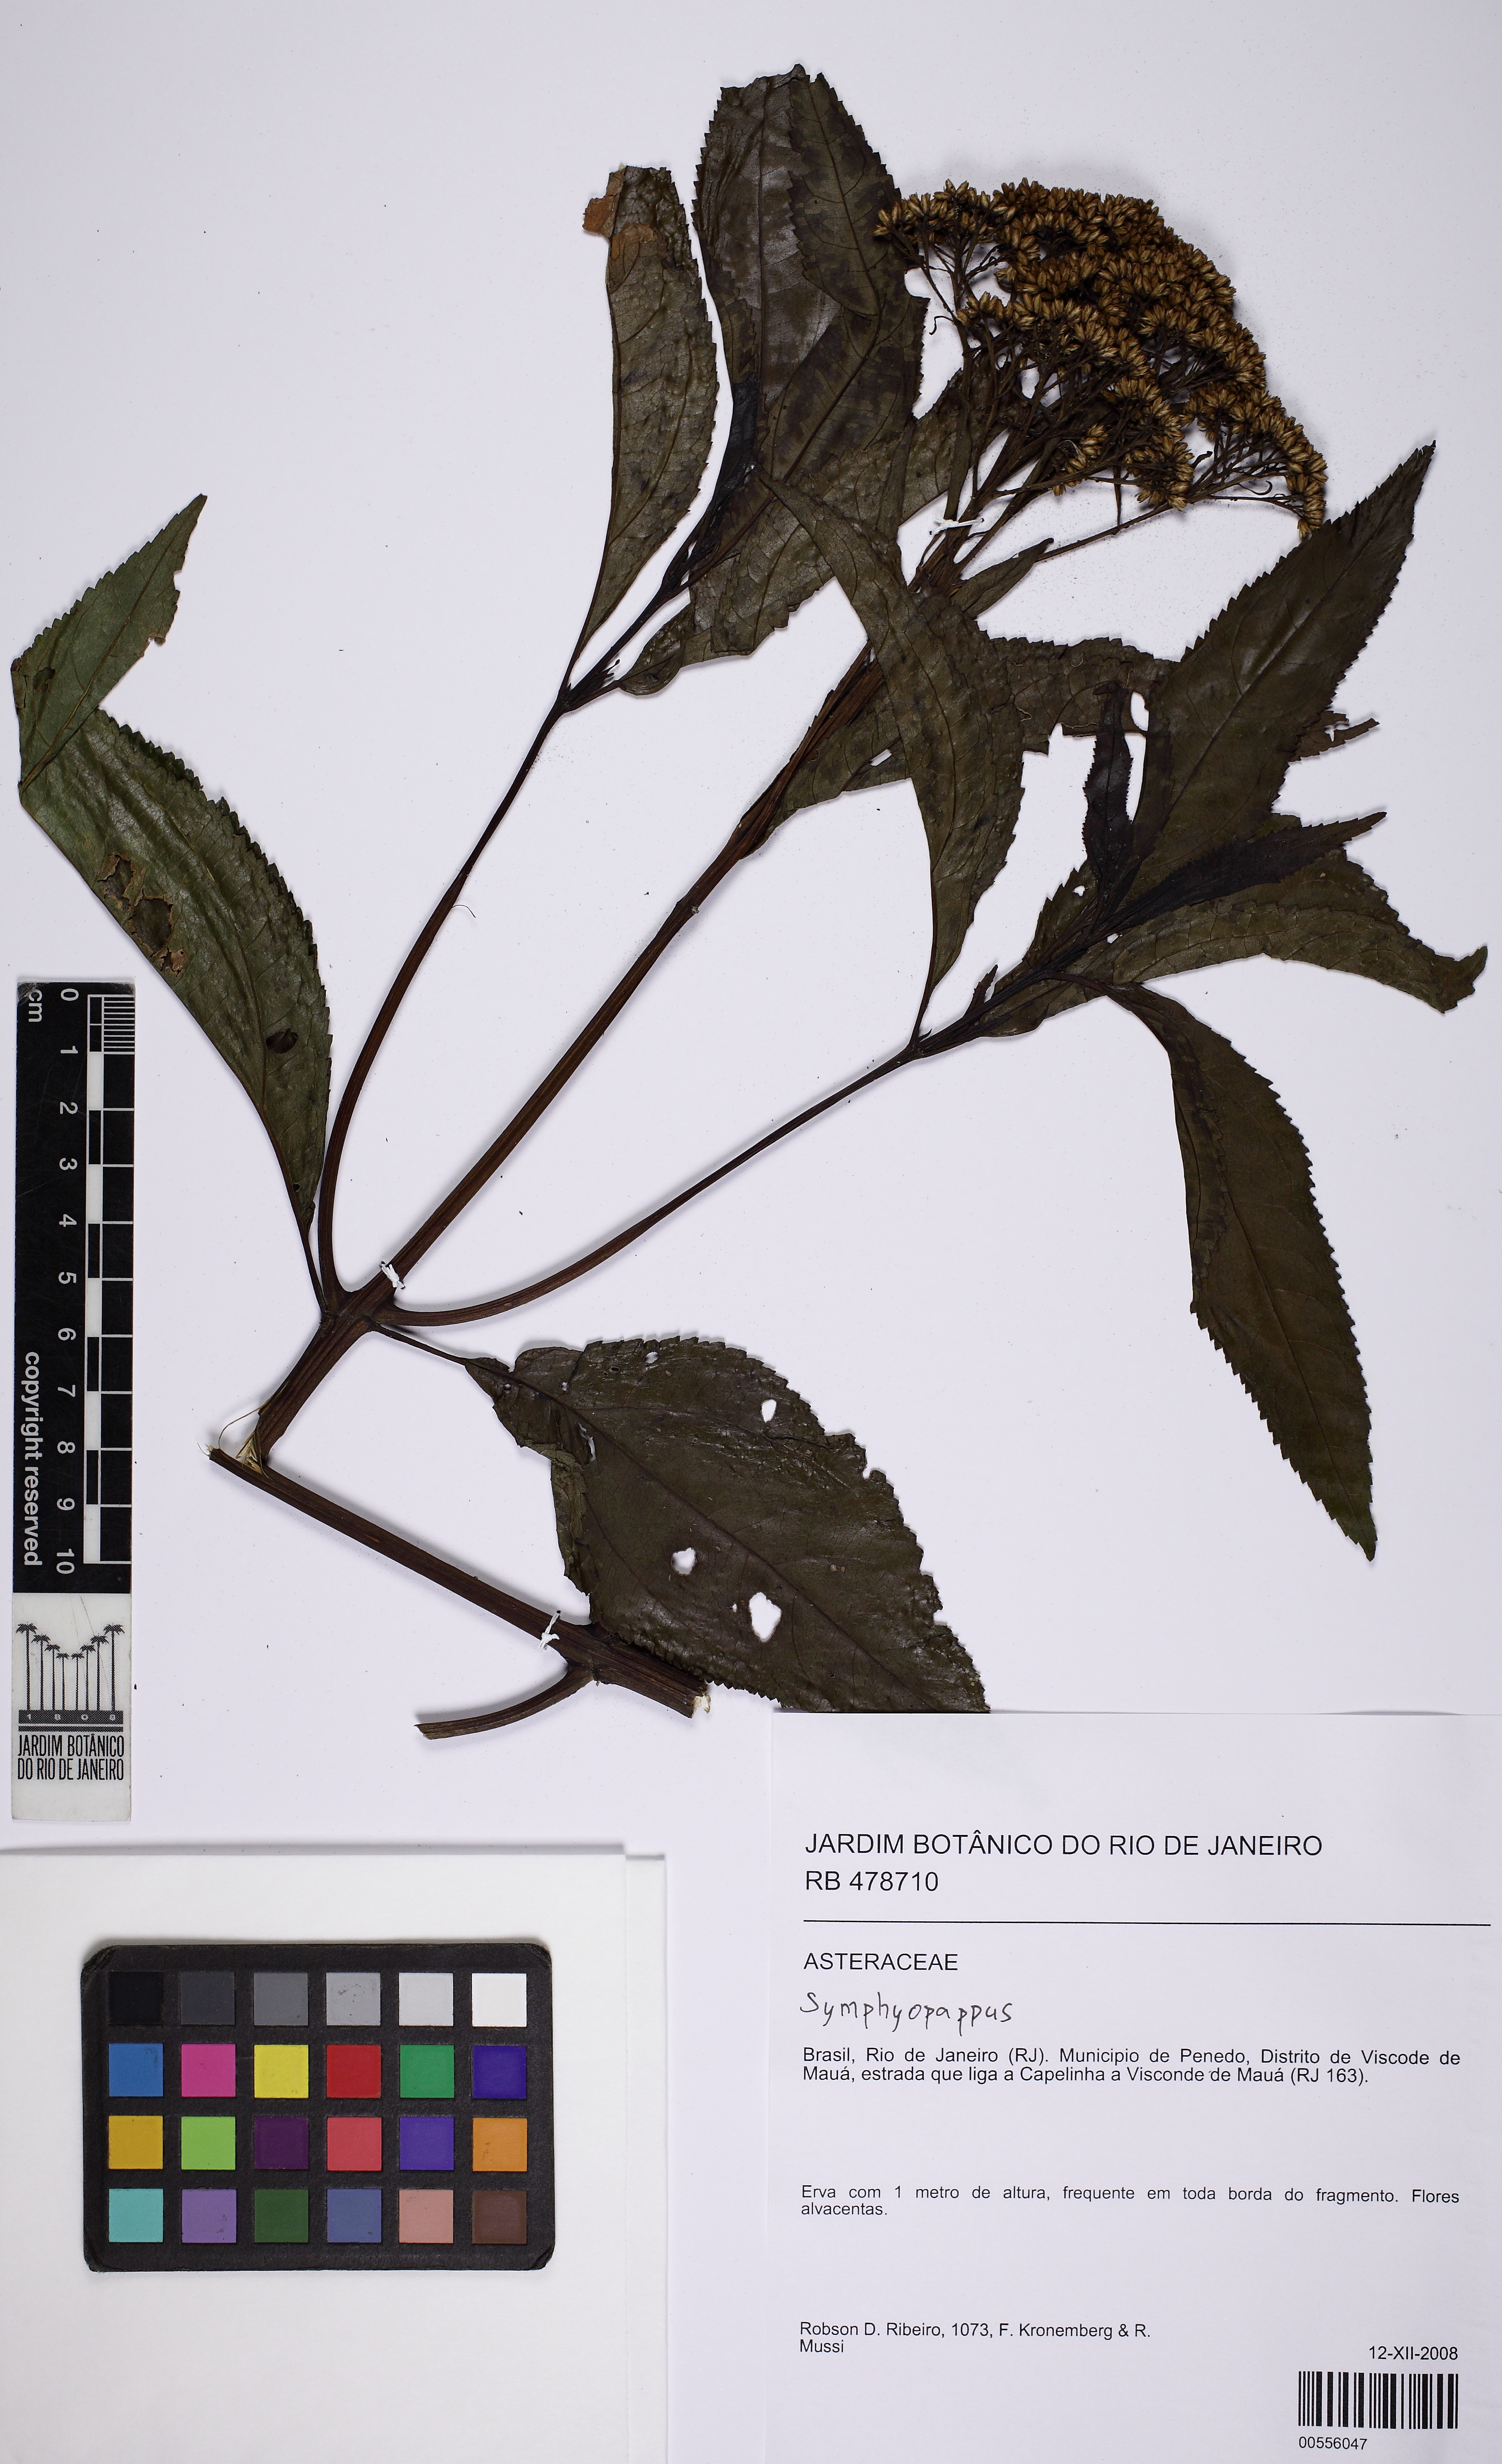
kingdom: Plantae
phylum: Tracheophyta
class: Magnoliopsida
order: Asterales
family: Asteraceae
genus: Symphyopappus
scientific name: Symphyopappus itatiayensis
